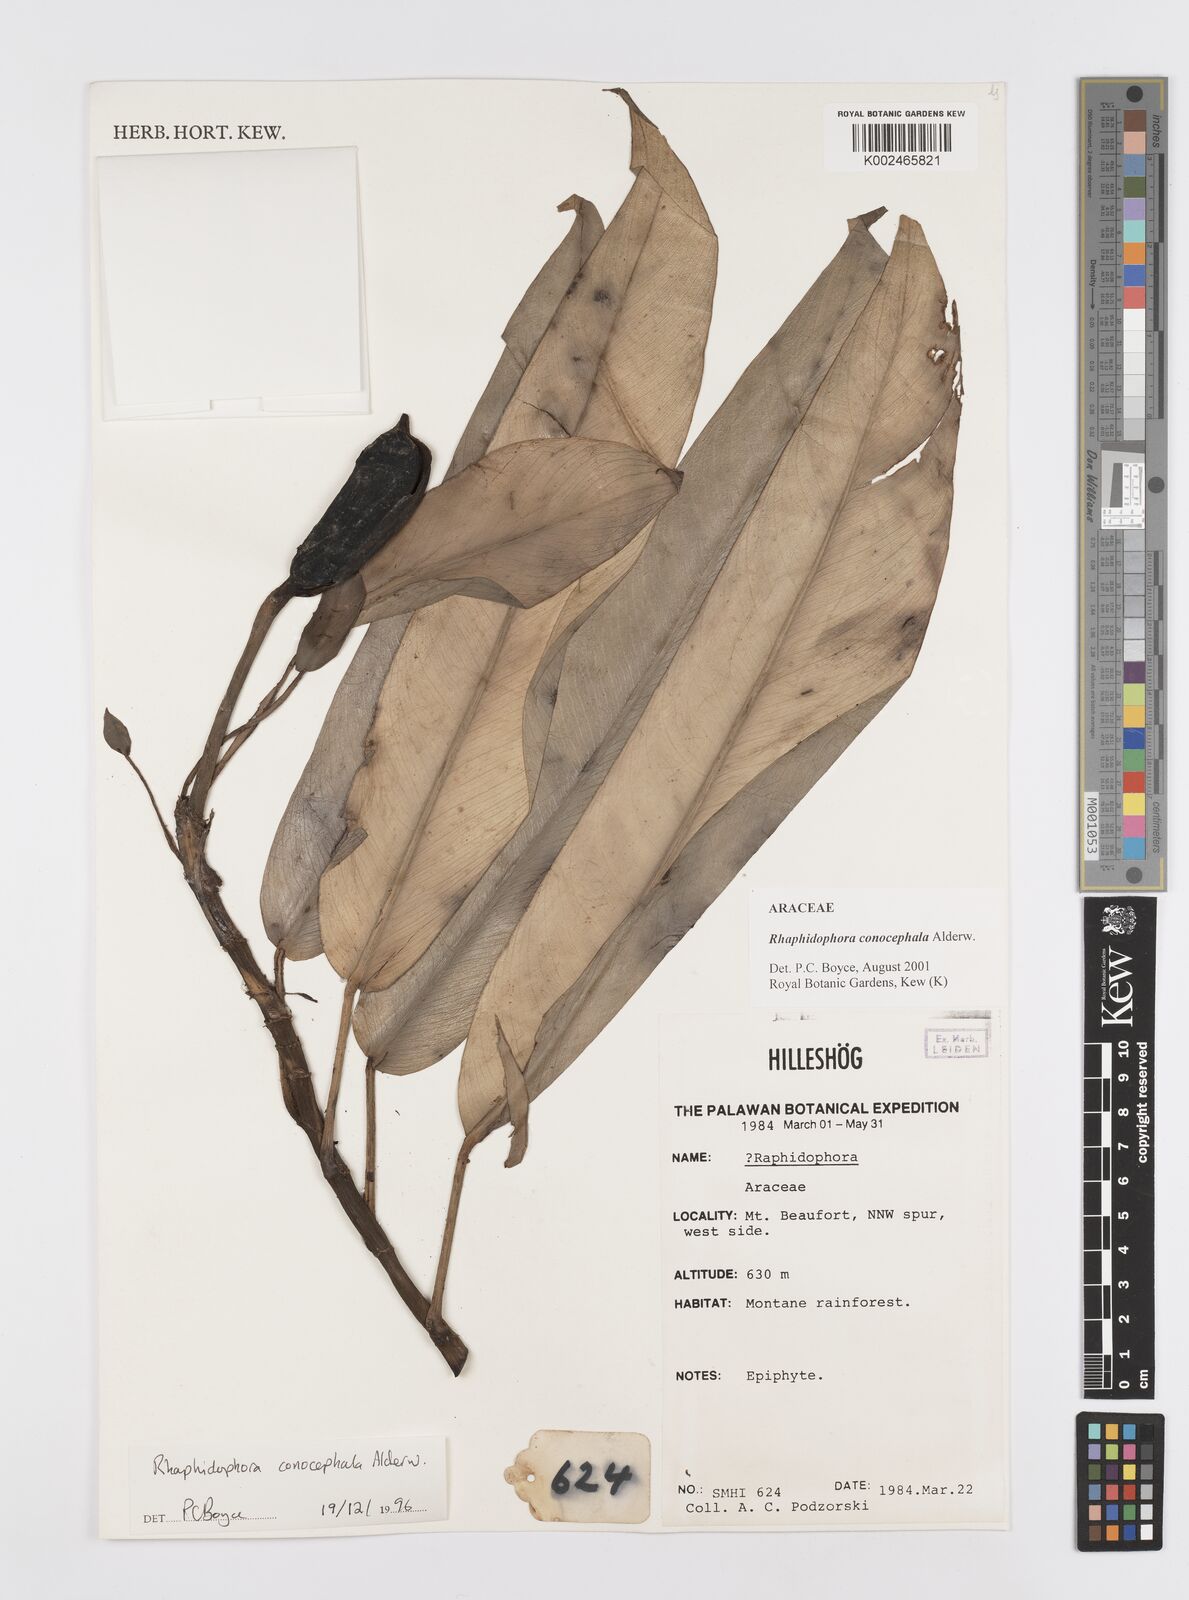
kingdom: Plantae
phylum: Tracheophyta
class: Liliopsida
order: Alismatales
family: Araceae
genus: Rhaphidophora
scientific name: Rhaphidophora conocephala
